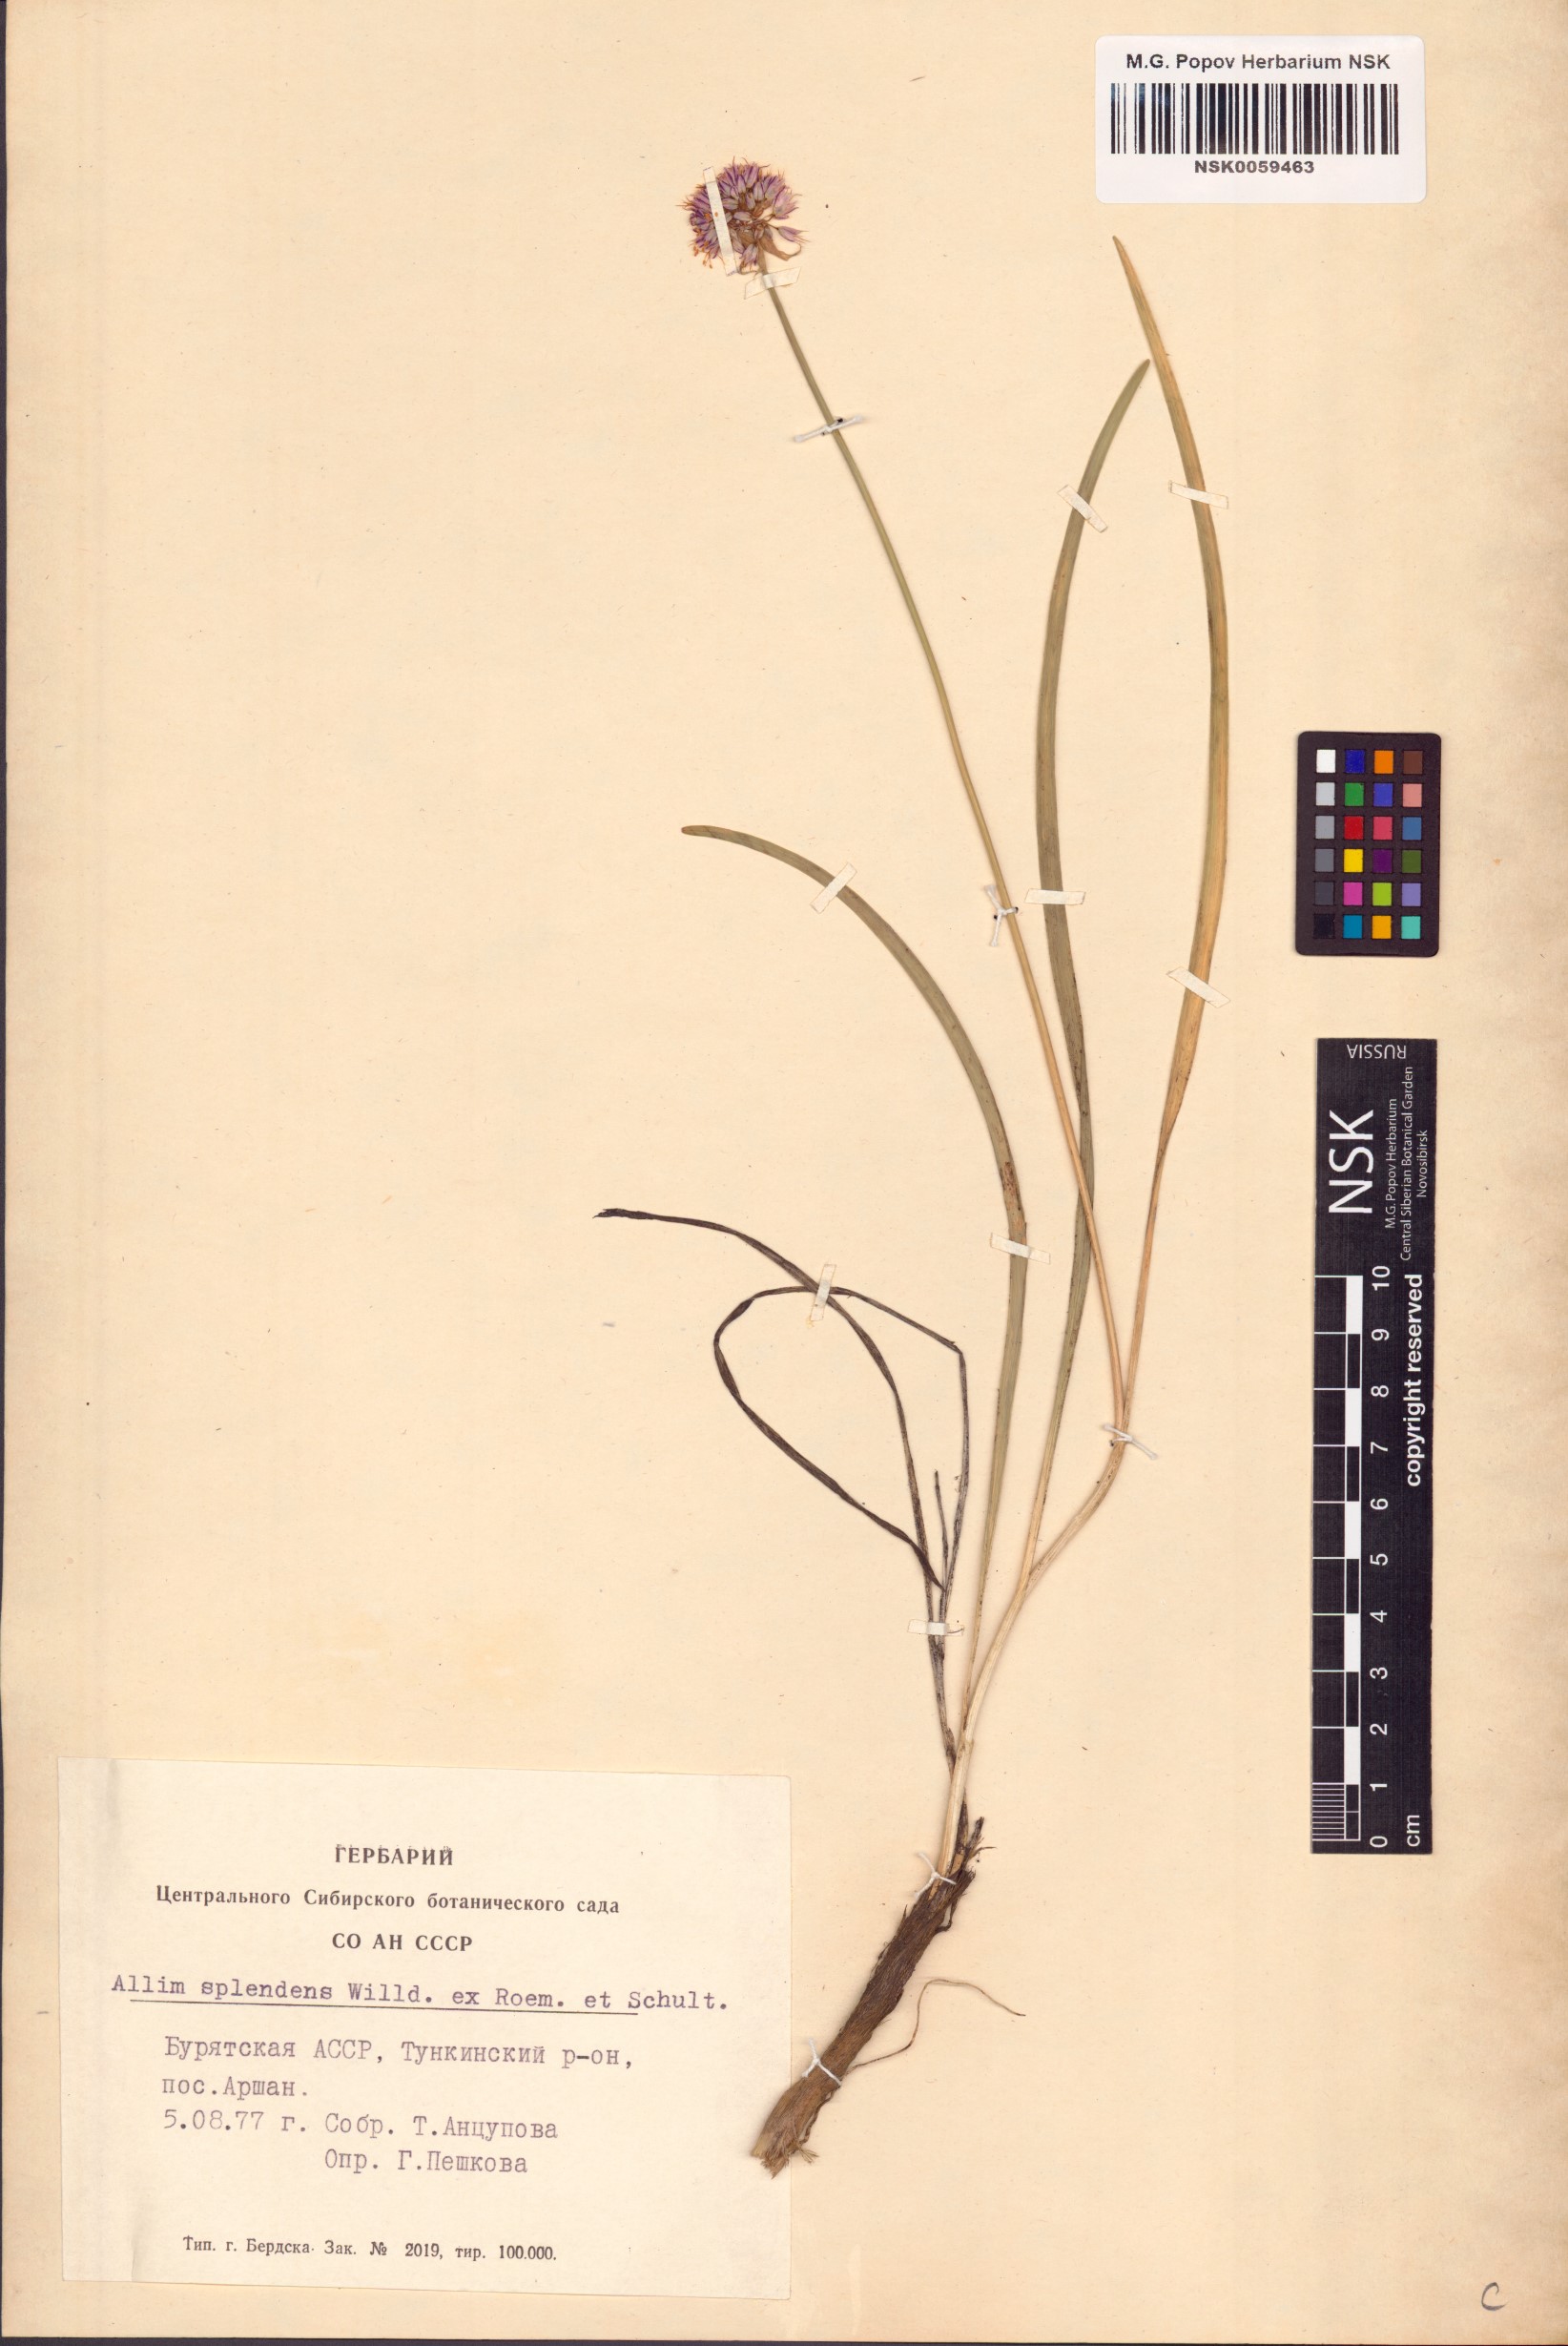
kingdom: Plantae
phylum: Tracheophyta
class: Liliopsida
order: Asparagales
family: Amaryllidaceae
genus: Allium
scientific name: Allium splendens
